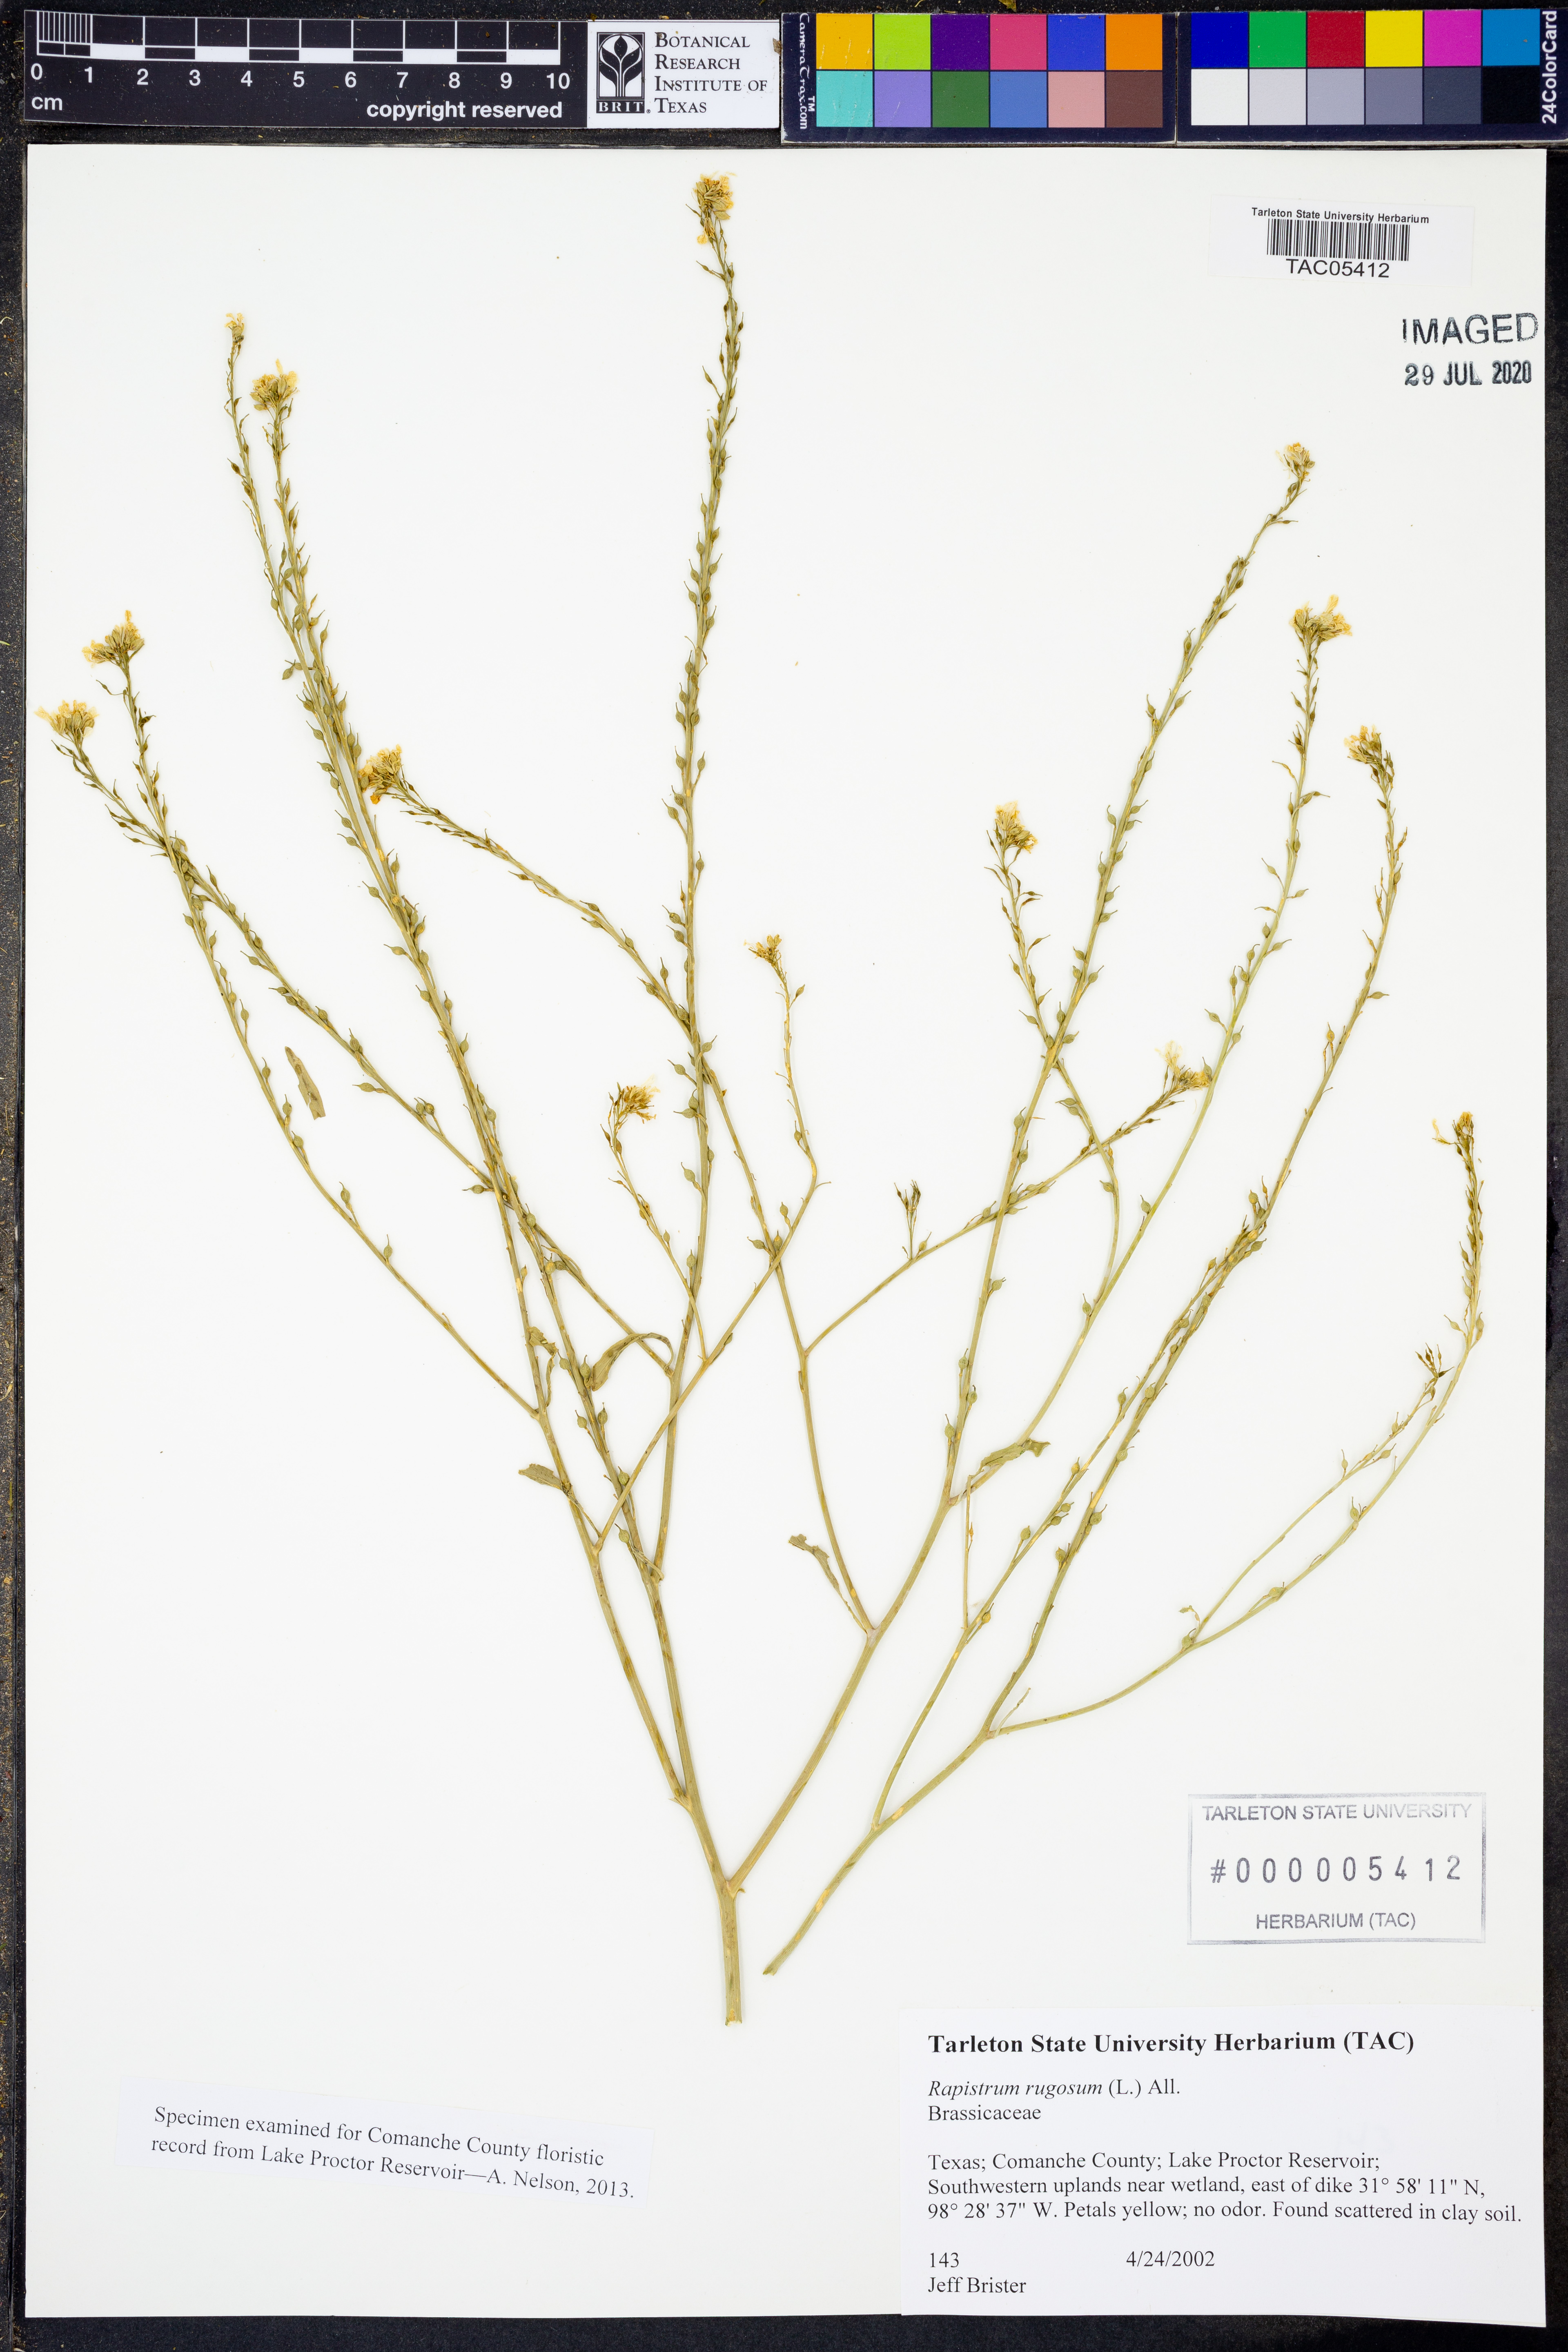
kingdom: Plantae
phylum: Tracheophyta
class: Magnoliopsida
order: Brassicales
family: Brassicaceae
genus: Rapistrum
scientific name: Rapistrum rugosum
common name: Annual bastardcabbage
